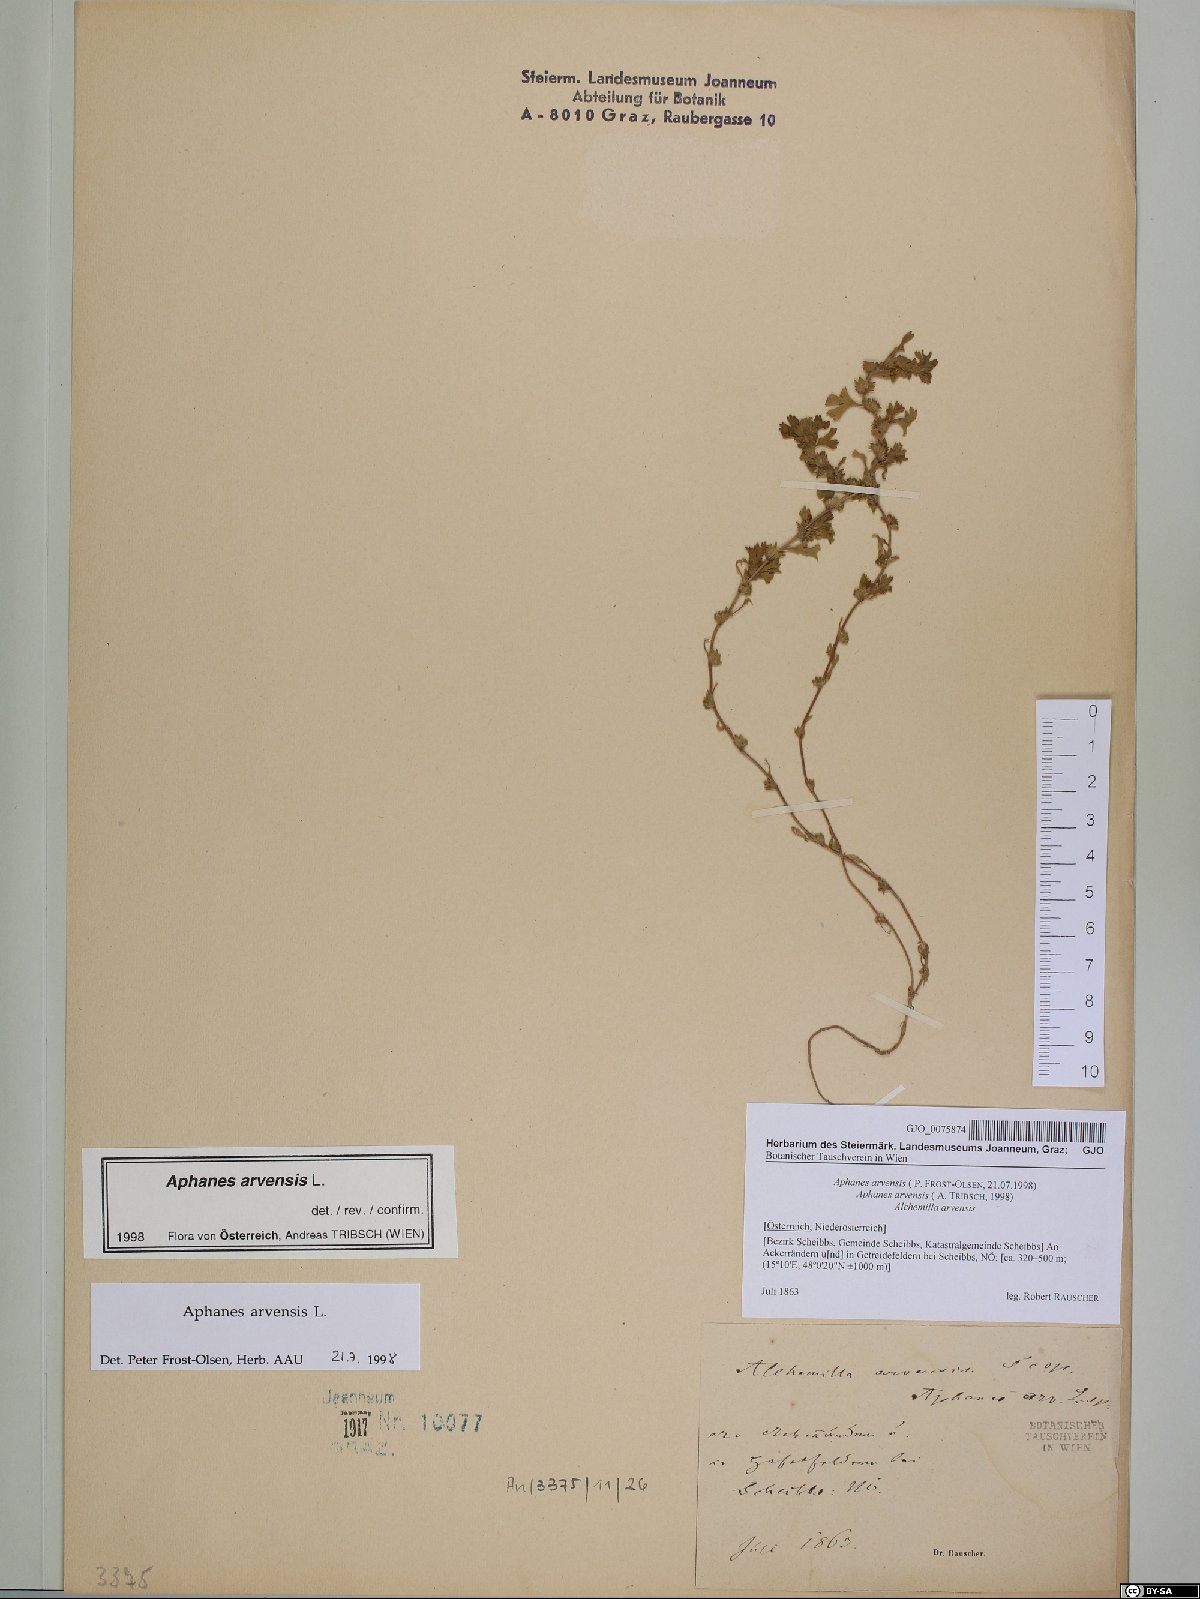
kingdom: Plantae
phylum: Tracheophyta
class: Magnoliopsida
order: Rosales
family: Rosaceae
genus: Aphanes
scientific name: Aphanes arvensis
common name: Parsley-piert
